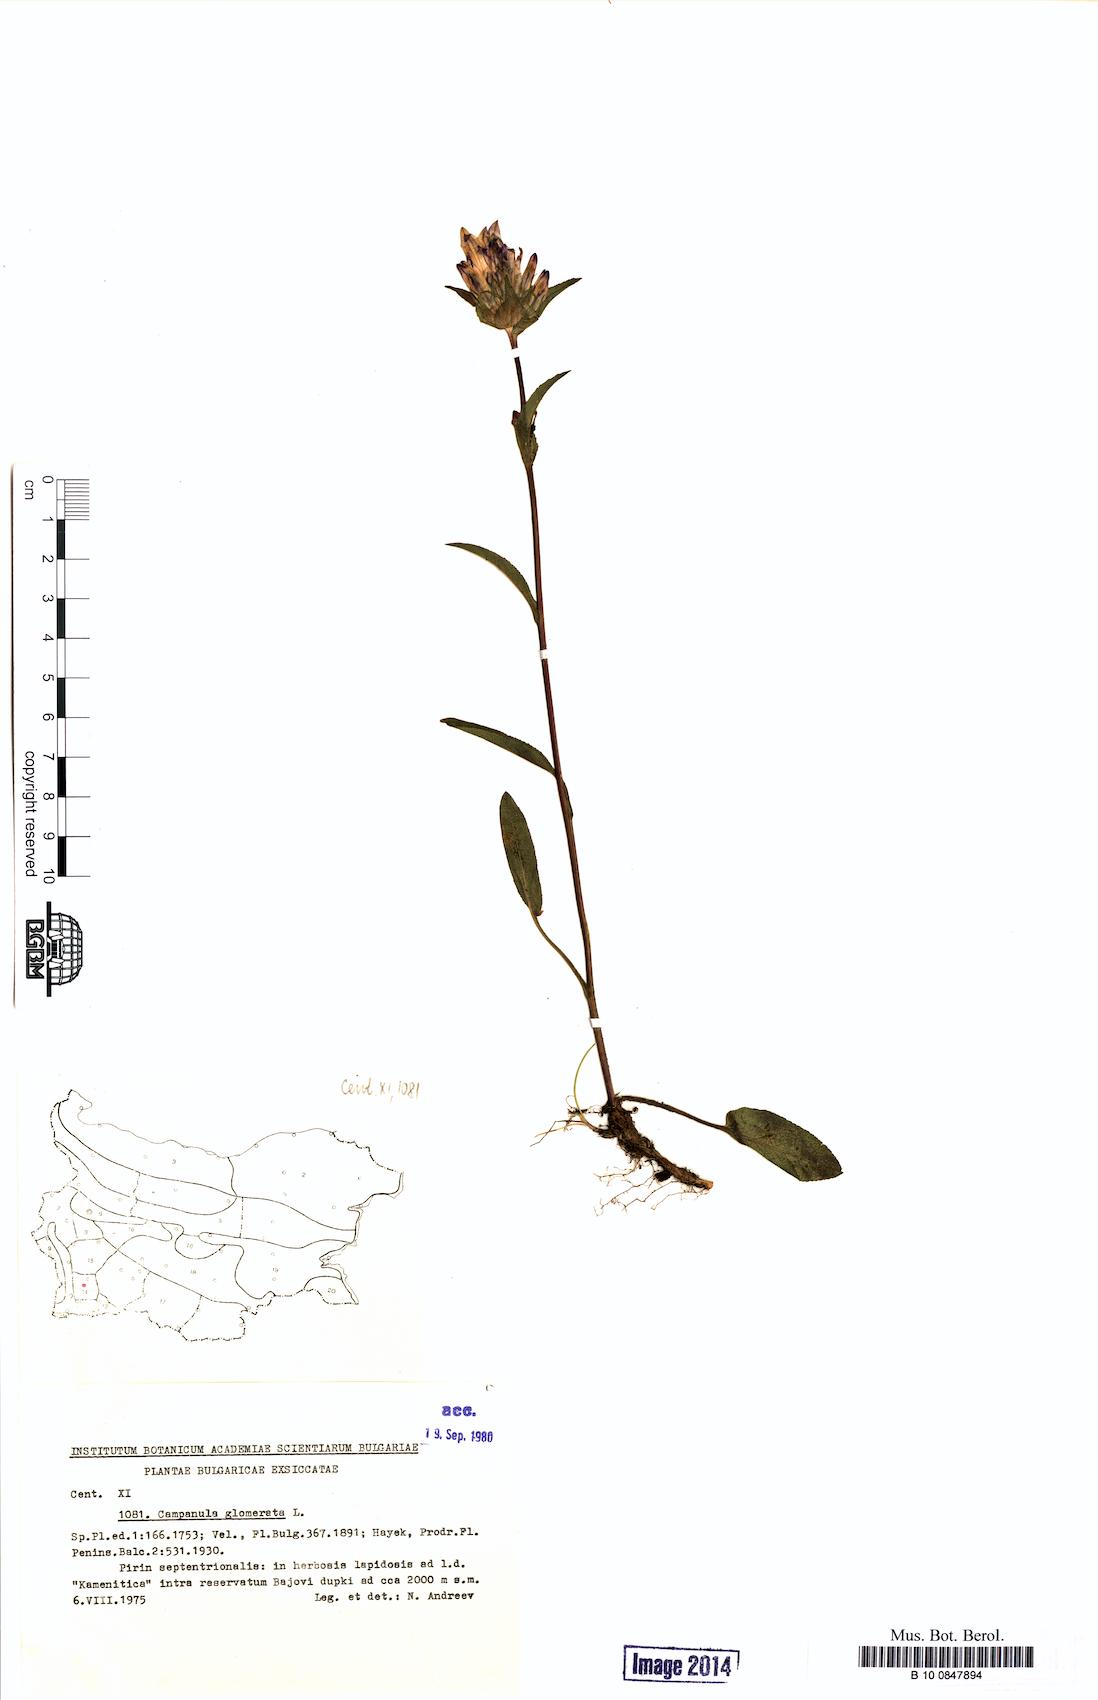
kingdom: Plantae
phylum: Tracheophyta
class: Magnoliopsida
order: Asterales
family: Campanulaceae
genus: Campanula
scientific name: Campanula glomerata
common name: Clustered bellflower
